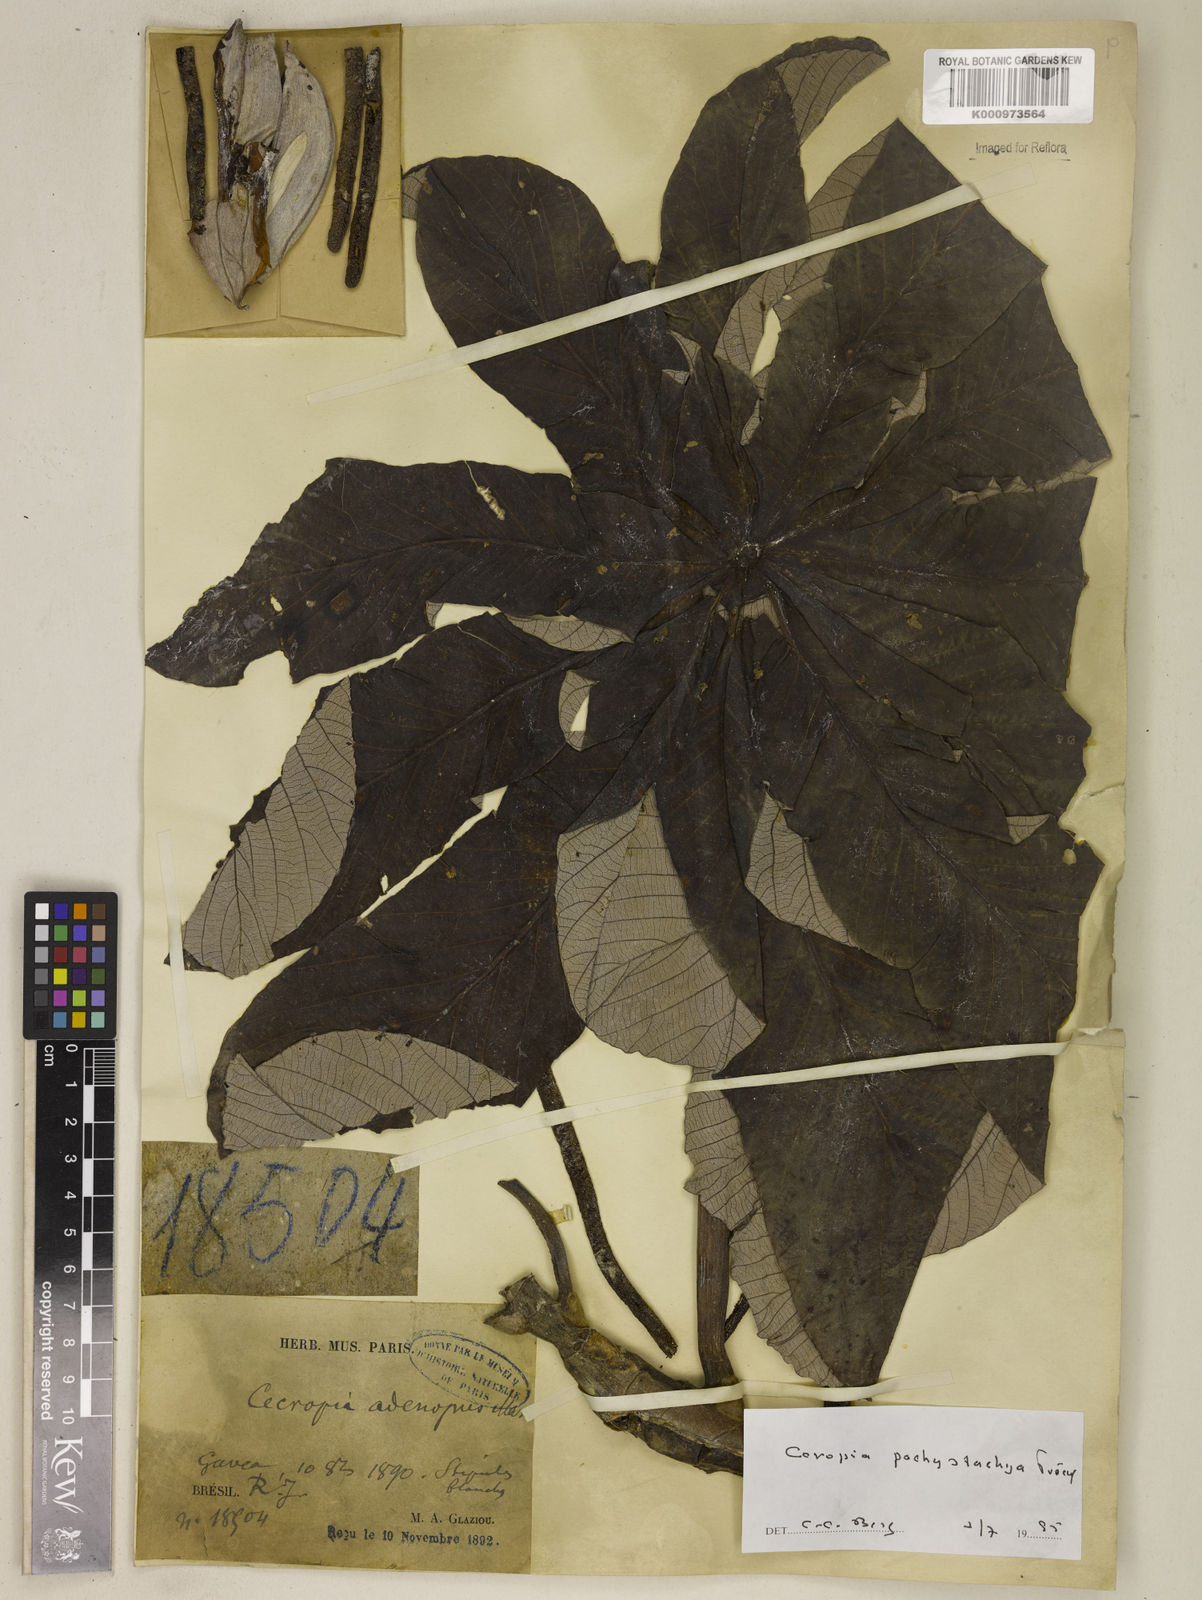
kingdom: Plantae
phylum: Tracheophyta
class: Magnoliopsida
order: Rosales
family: Urticaceae
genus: Cecropia
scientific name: Cecropia
